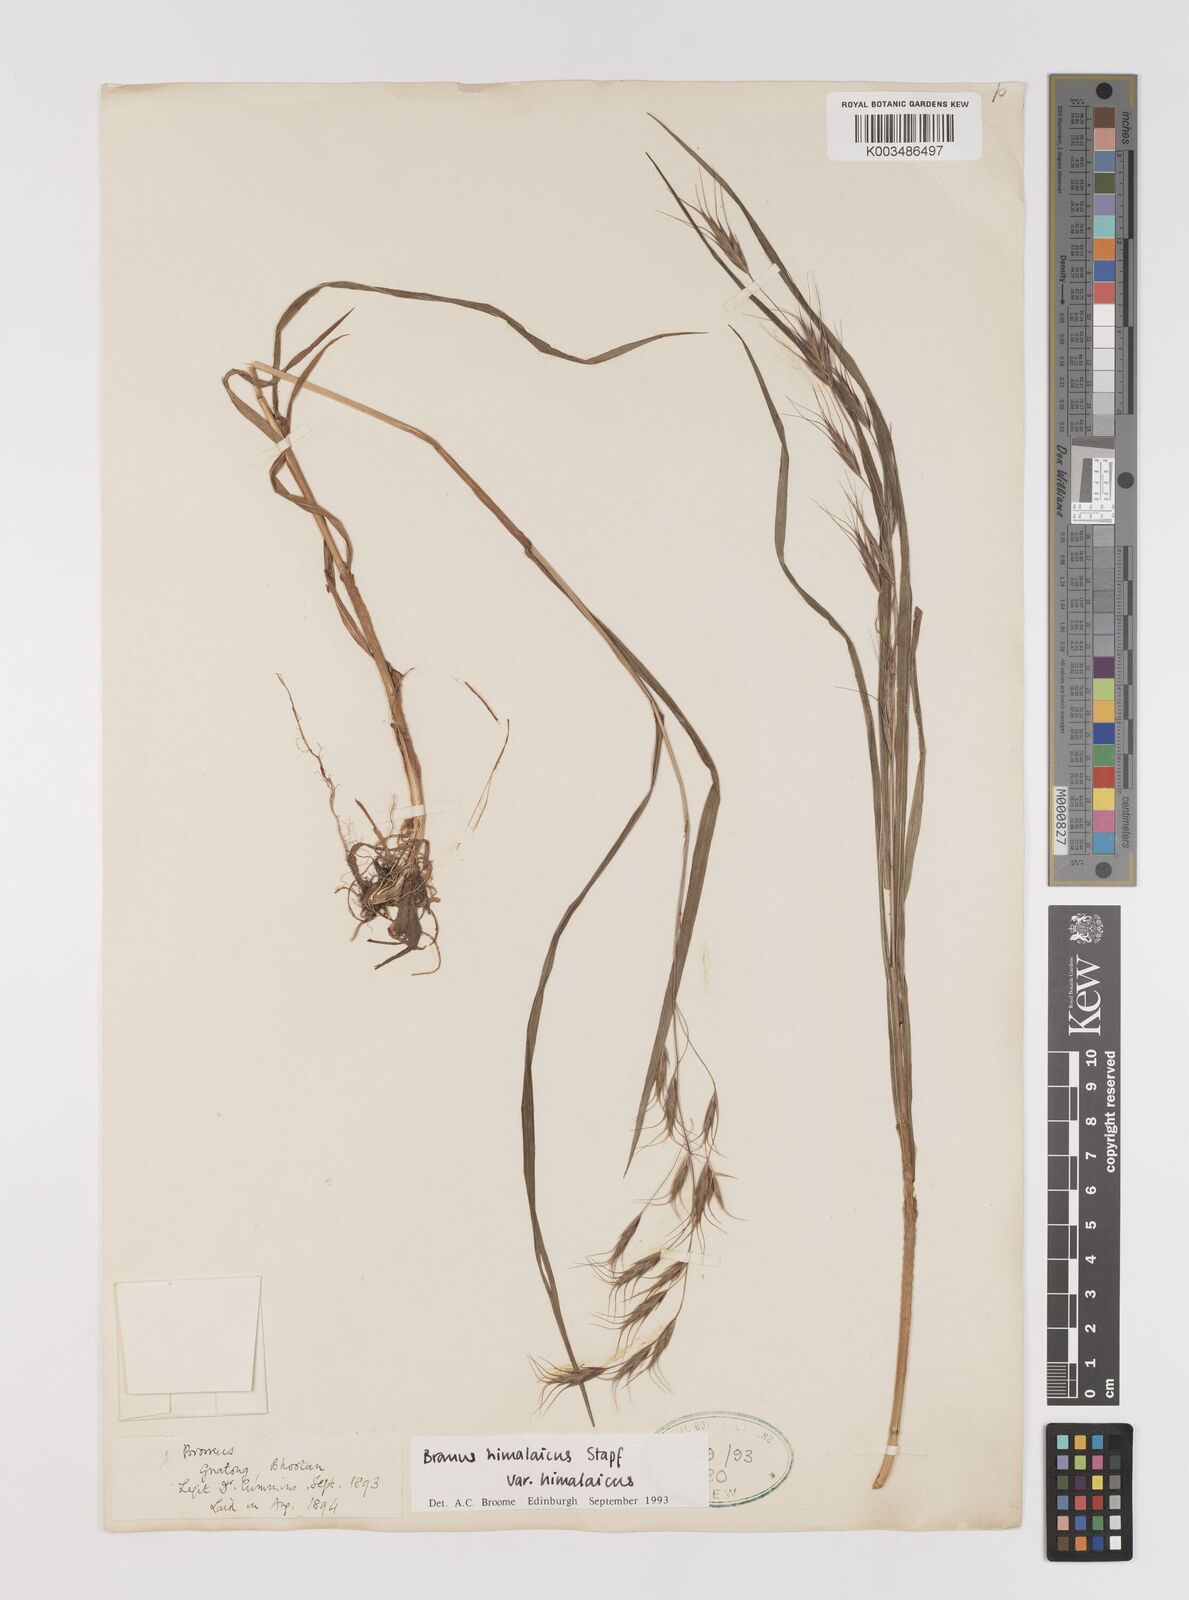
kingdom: Plantae
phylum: Tracheophyta
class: Liliopsida
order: Poales
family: Poaceae
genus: Bromus
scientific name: Bromus himalaicus
